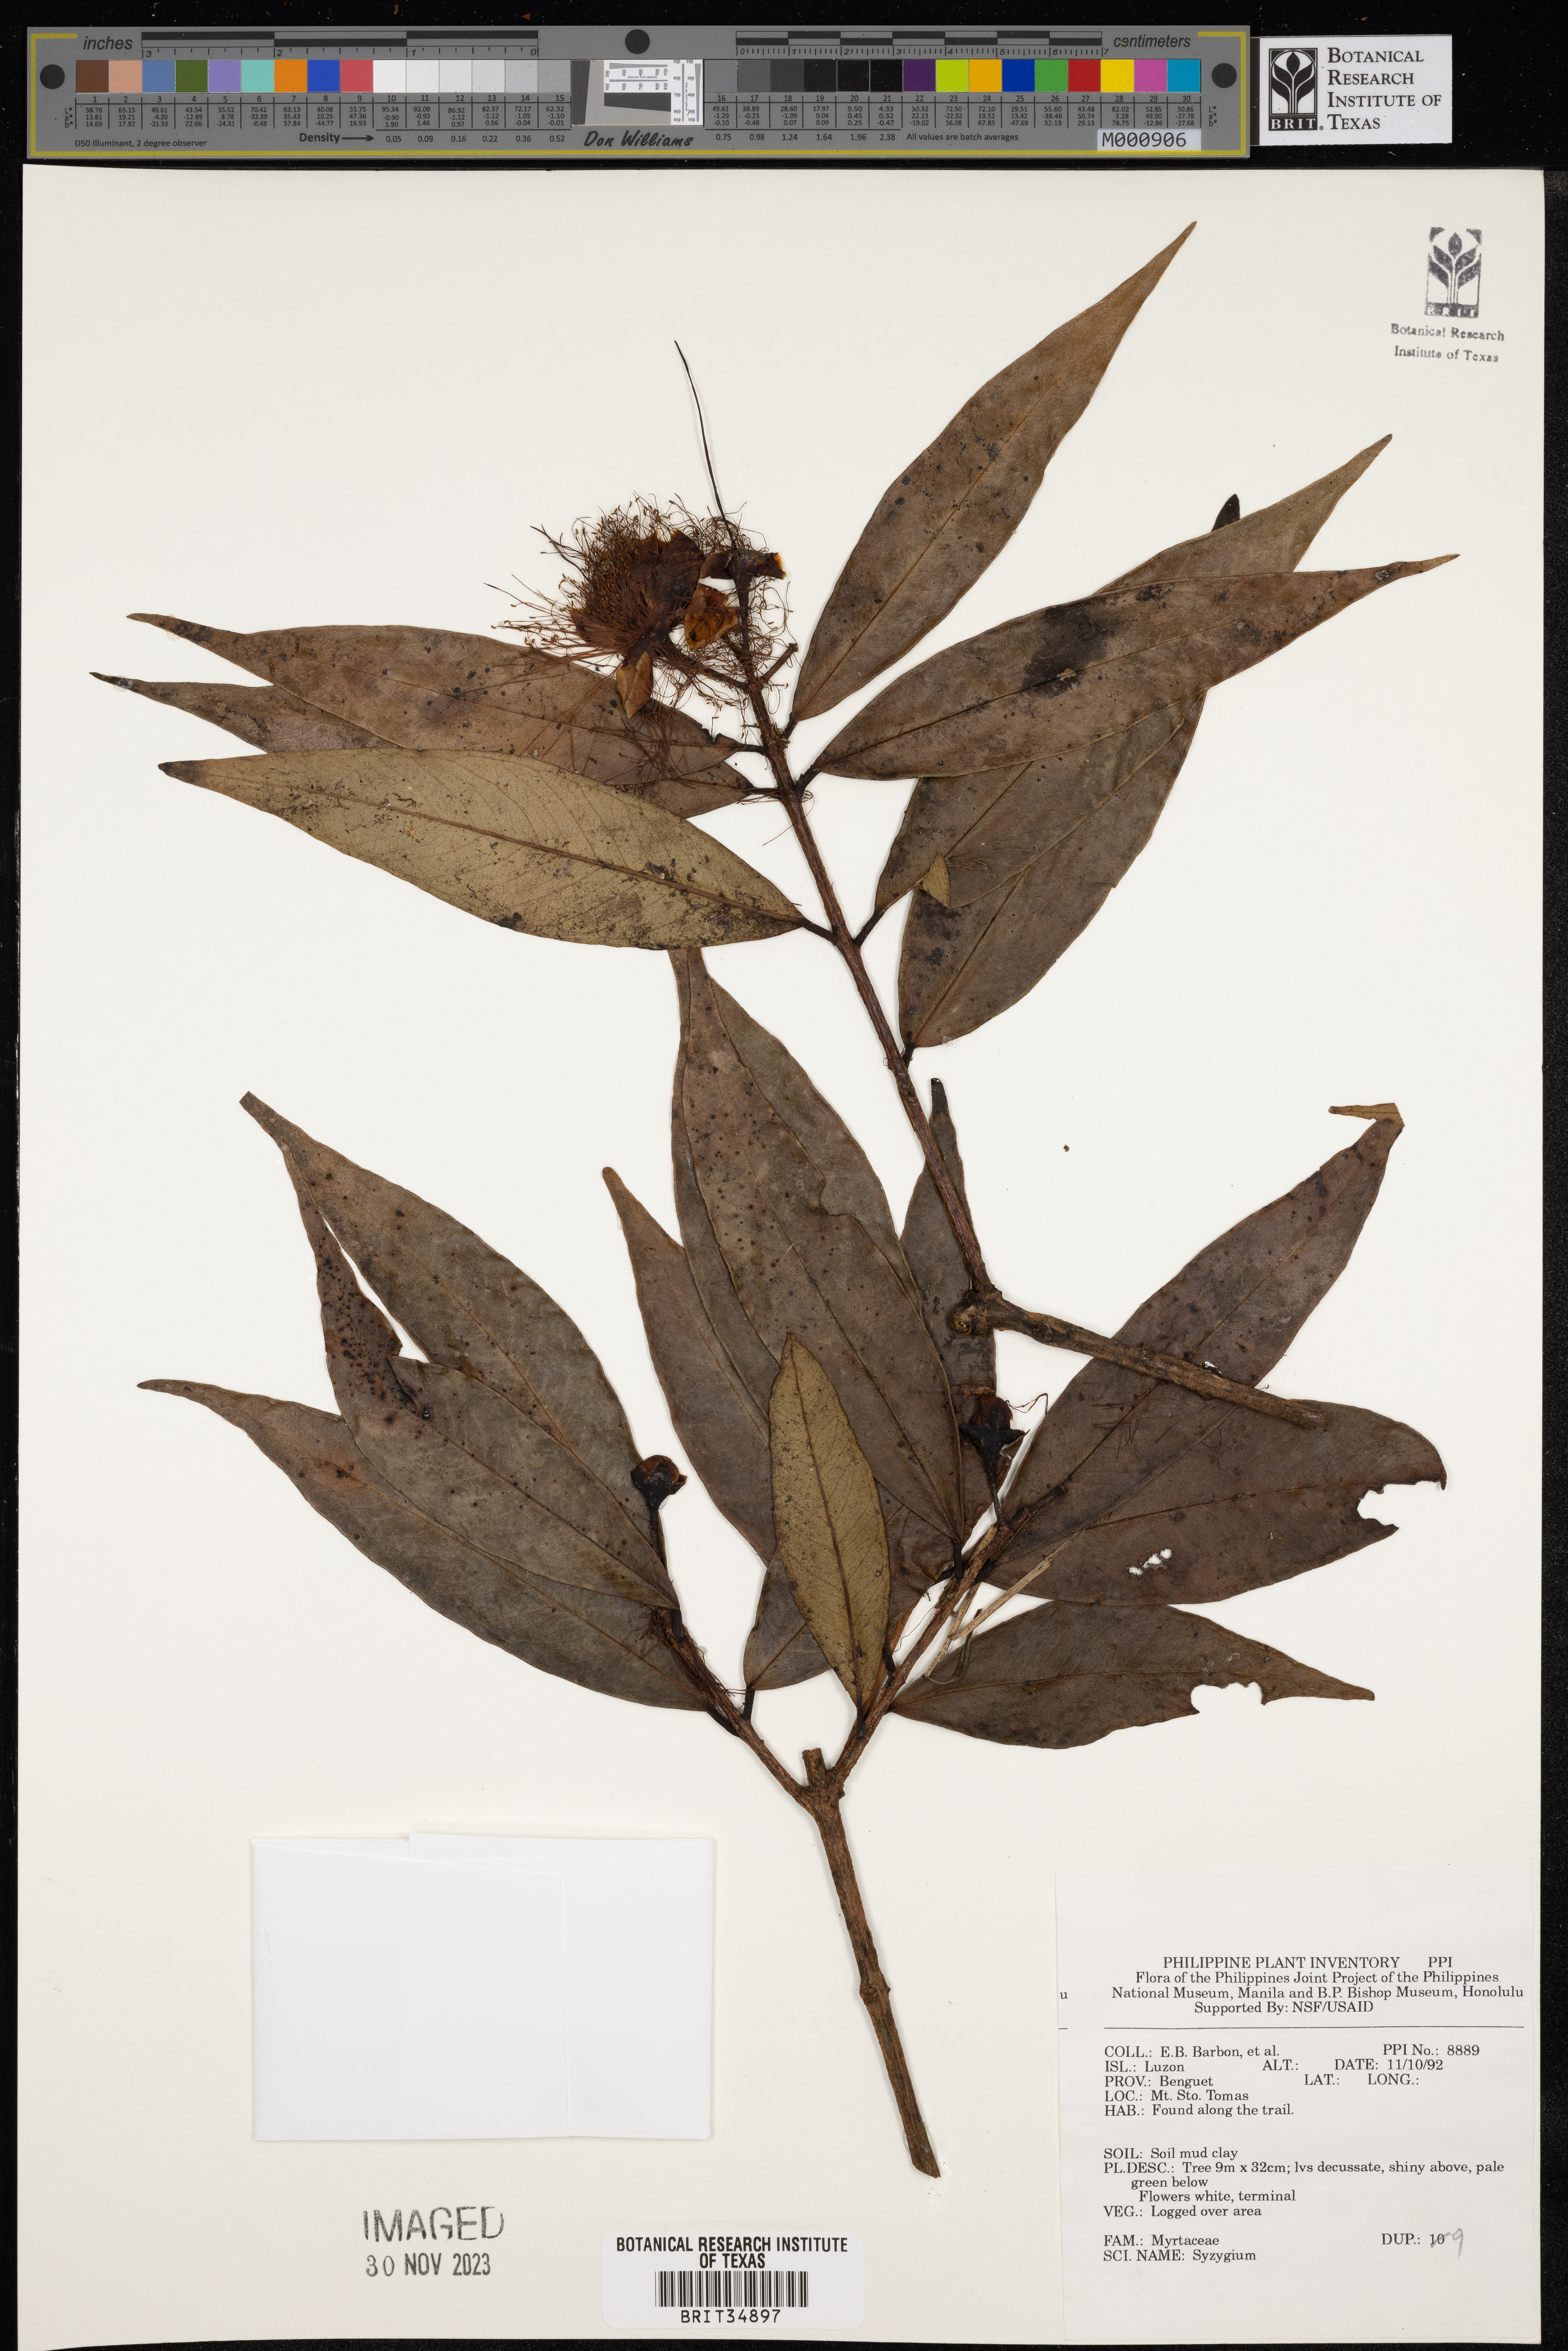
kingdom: Plantae
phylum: Tracheophyta
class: Magnoliopsida
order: Myrtales
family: Myrtaceae
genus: Syzygium
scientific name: Syzygium
